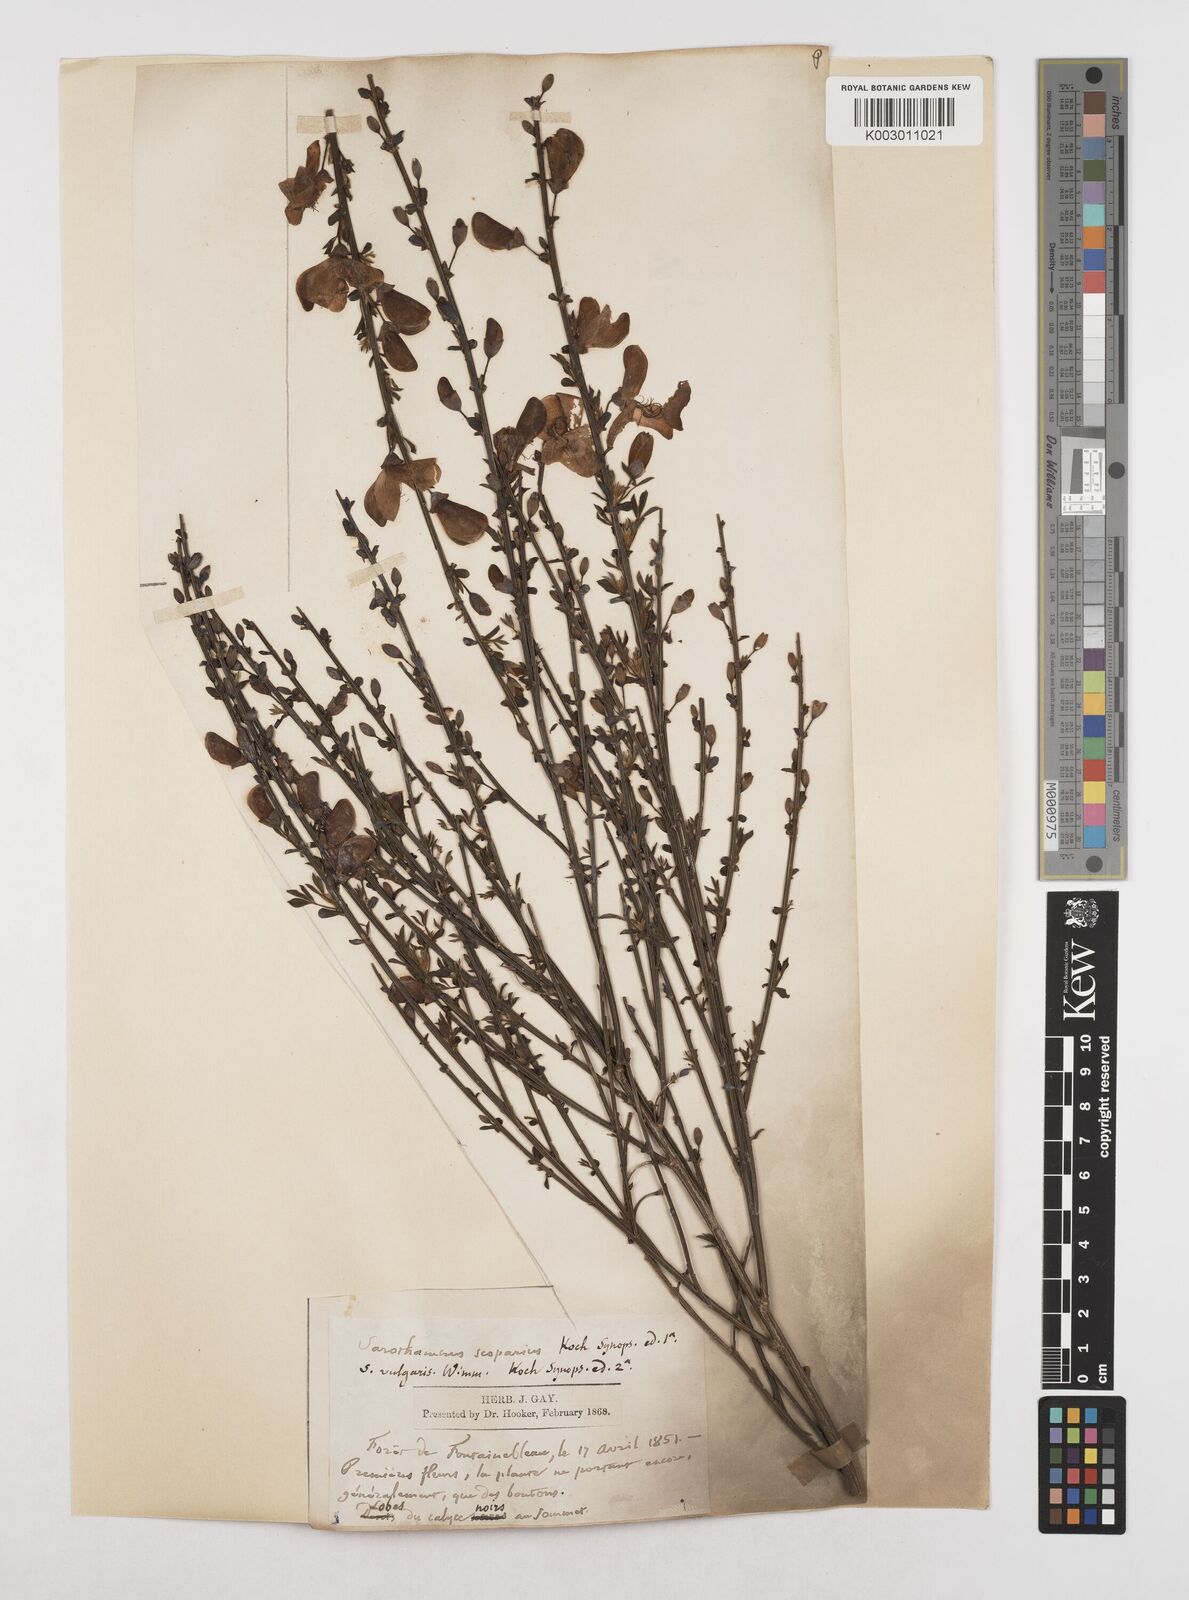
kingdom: Plantae
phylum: Tracheophyta
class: Magnoliopsida
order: Fabales
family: Fabaceae
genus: Cytisus
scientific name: Cytisus scoparius
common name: Scotch broom
